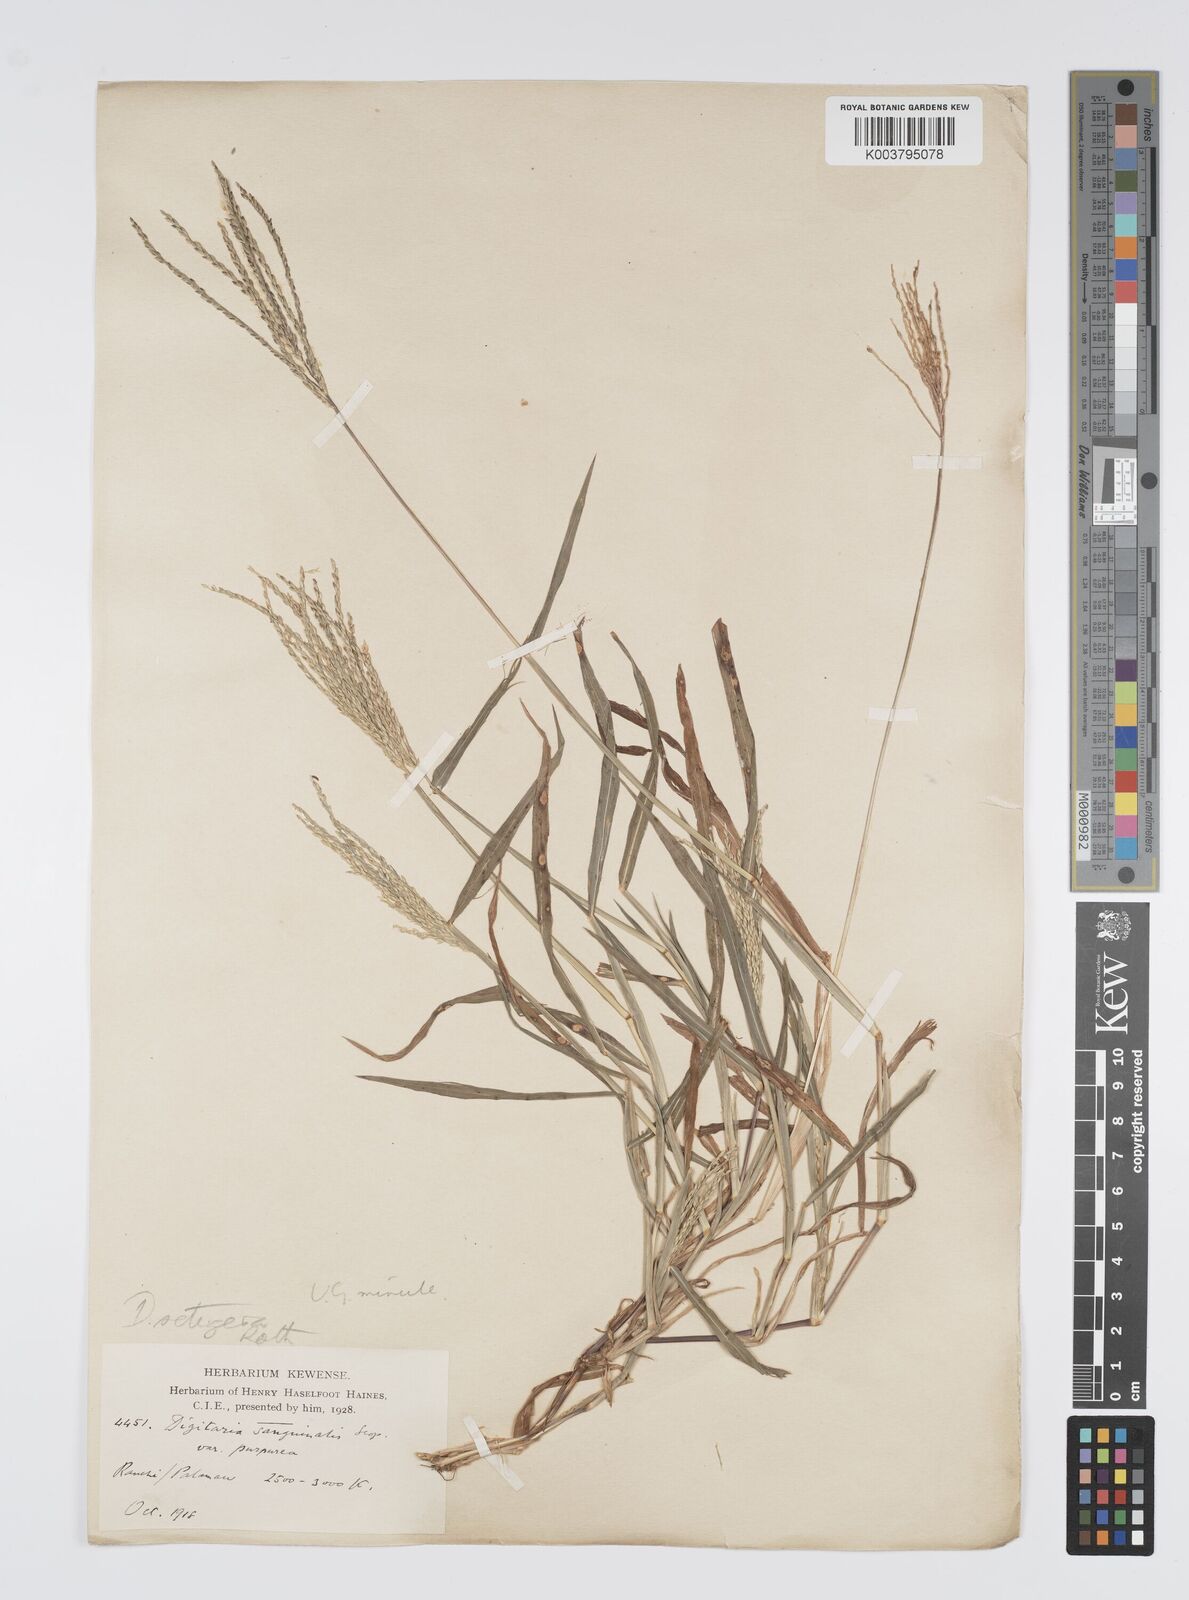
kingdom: Plantae
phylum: Tracheophyta
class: Liliopsida
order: Poales
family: Poaceae
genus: Digitaria
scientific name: Digitaria setigera
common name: East indian crabgrass
